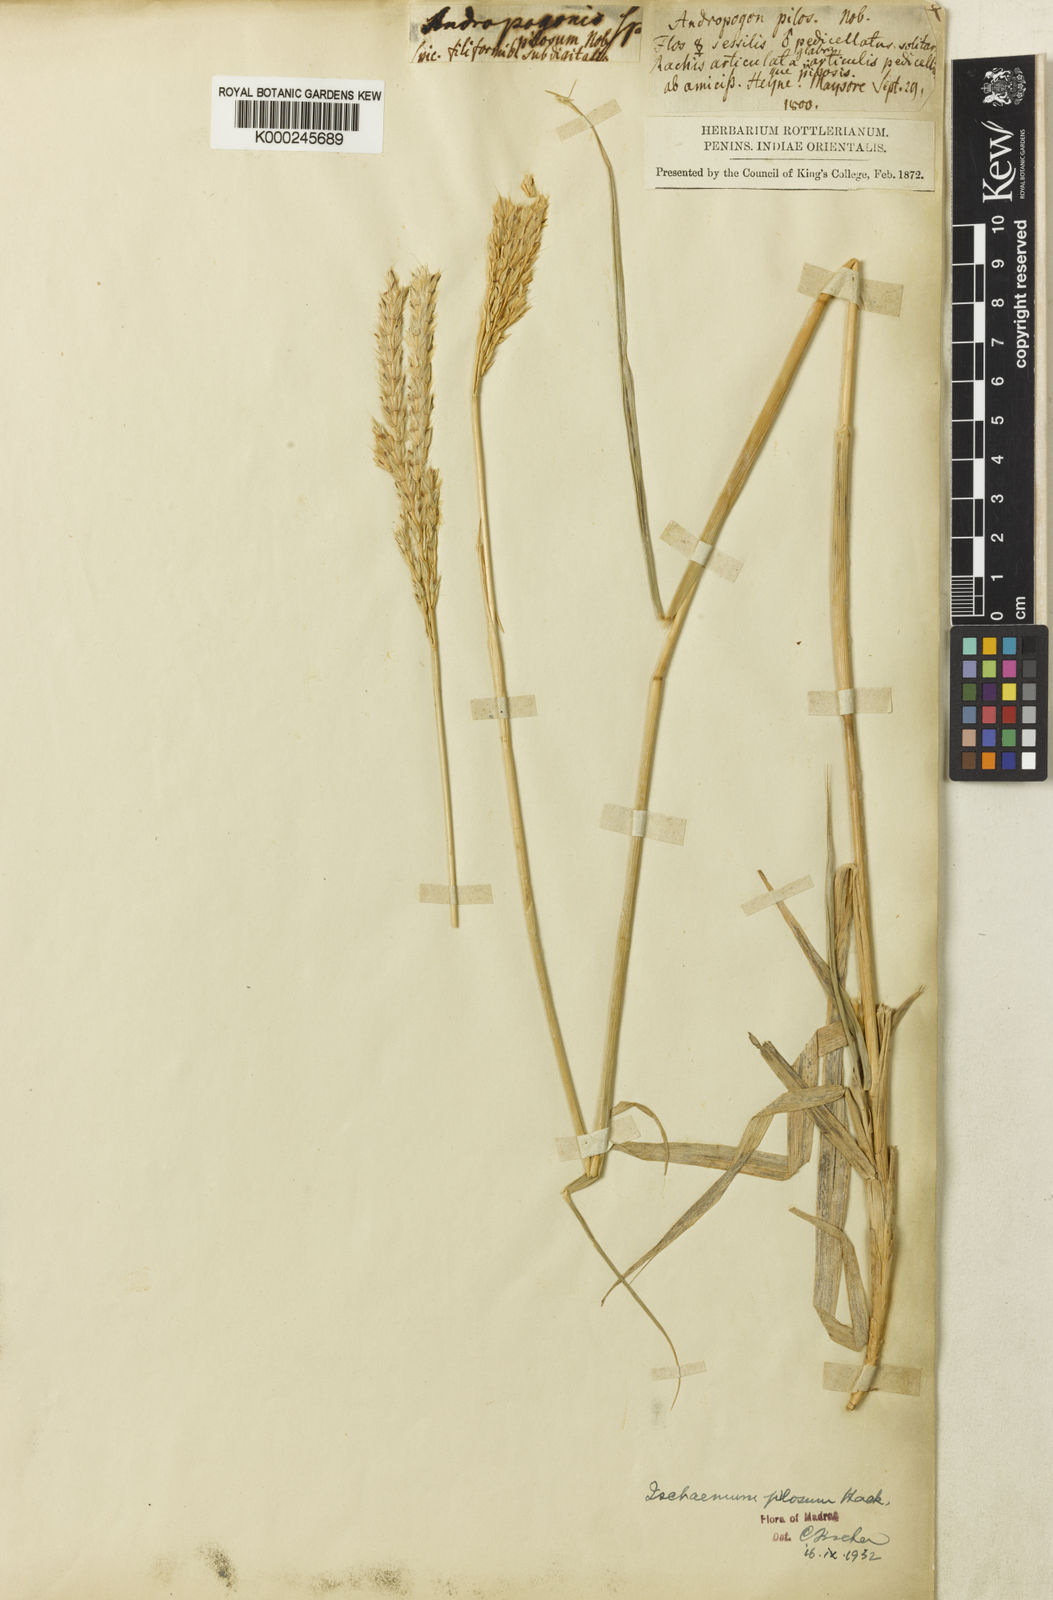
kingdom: Plantae
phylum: Tracheophyta
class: Liliopsida
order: Poales
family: Poaceae
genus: Ischaemum
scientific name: Ischaemum afrum
